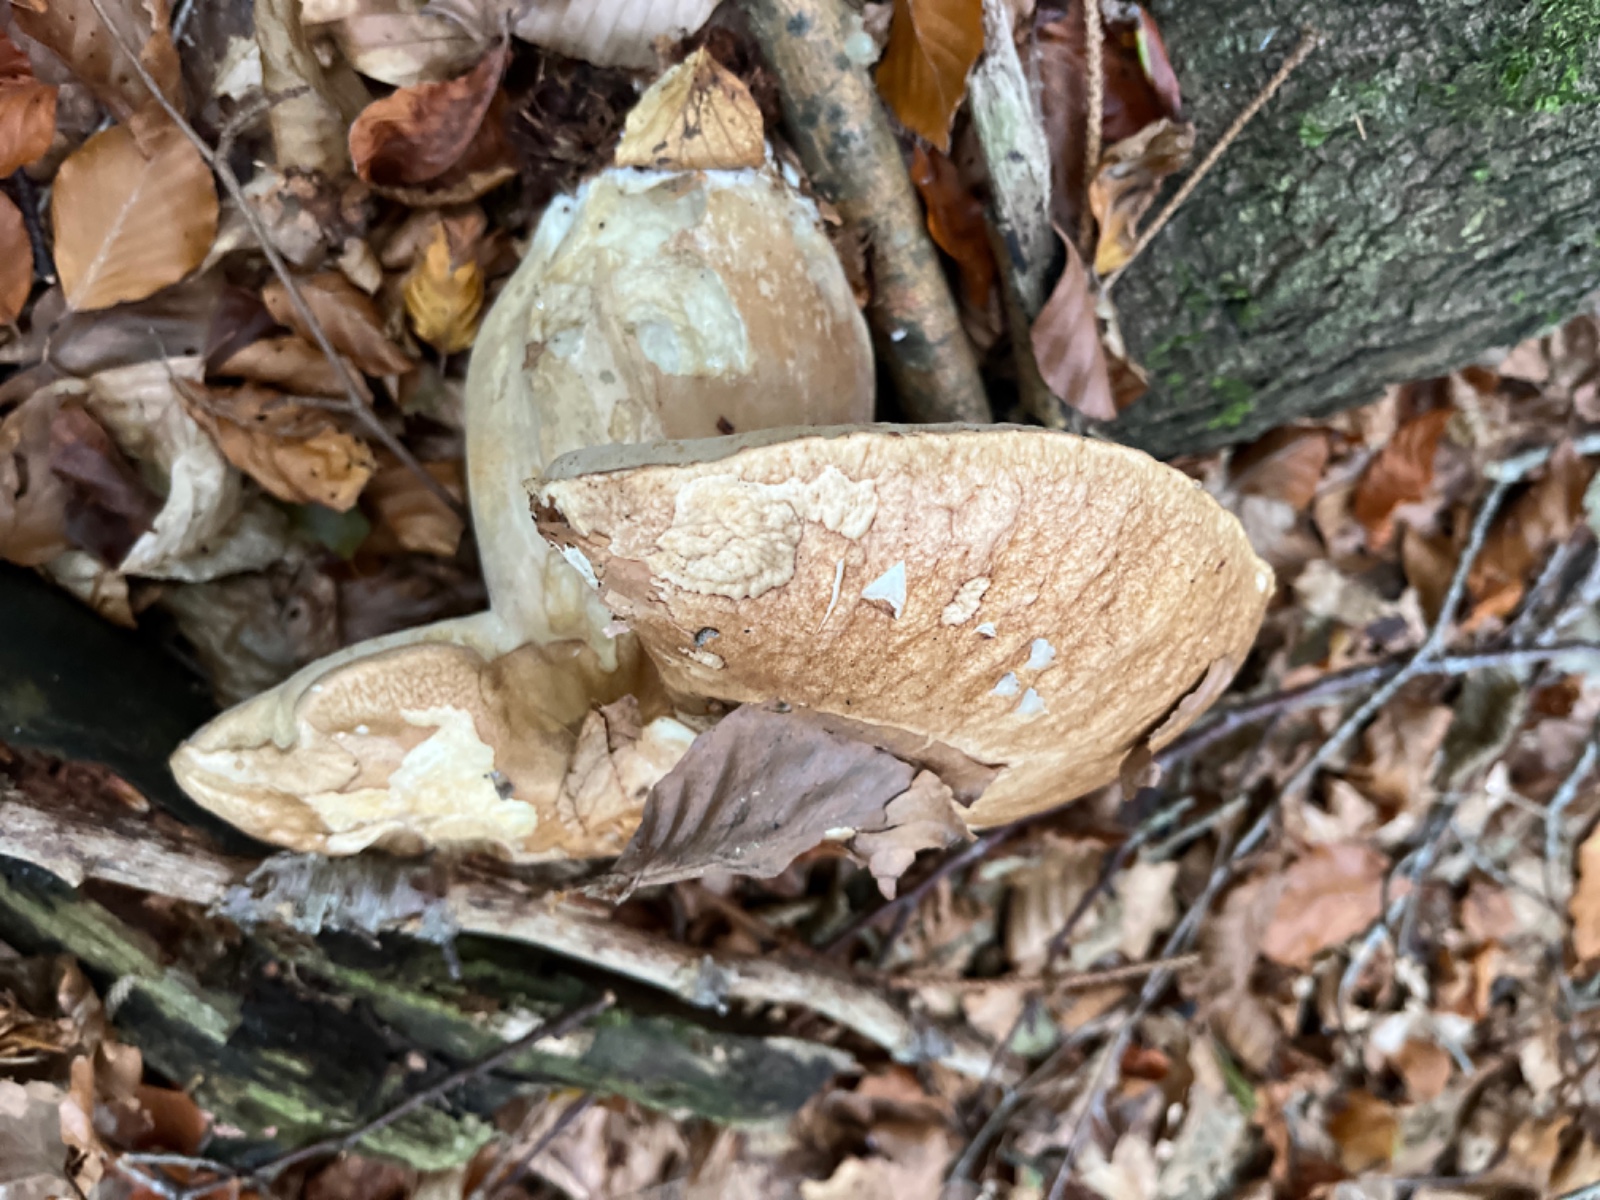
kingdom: Fungi
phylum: Basidiomycota
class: Agaricomycetes
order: Boletales
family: Boletaceae
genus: Boletus
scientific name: Boletus reticulatus
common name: sommer-rørhat
